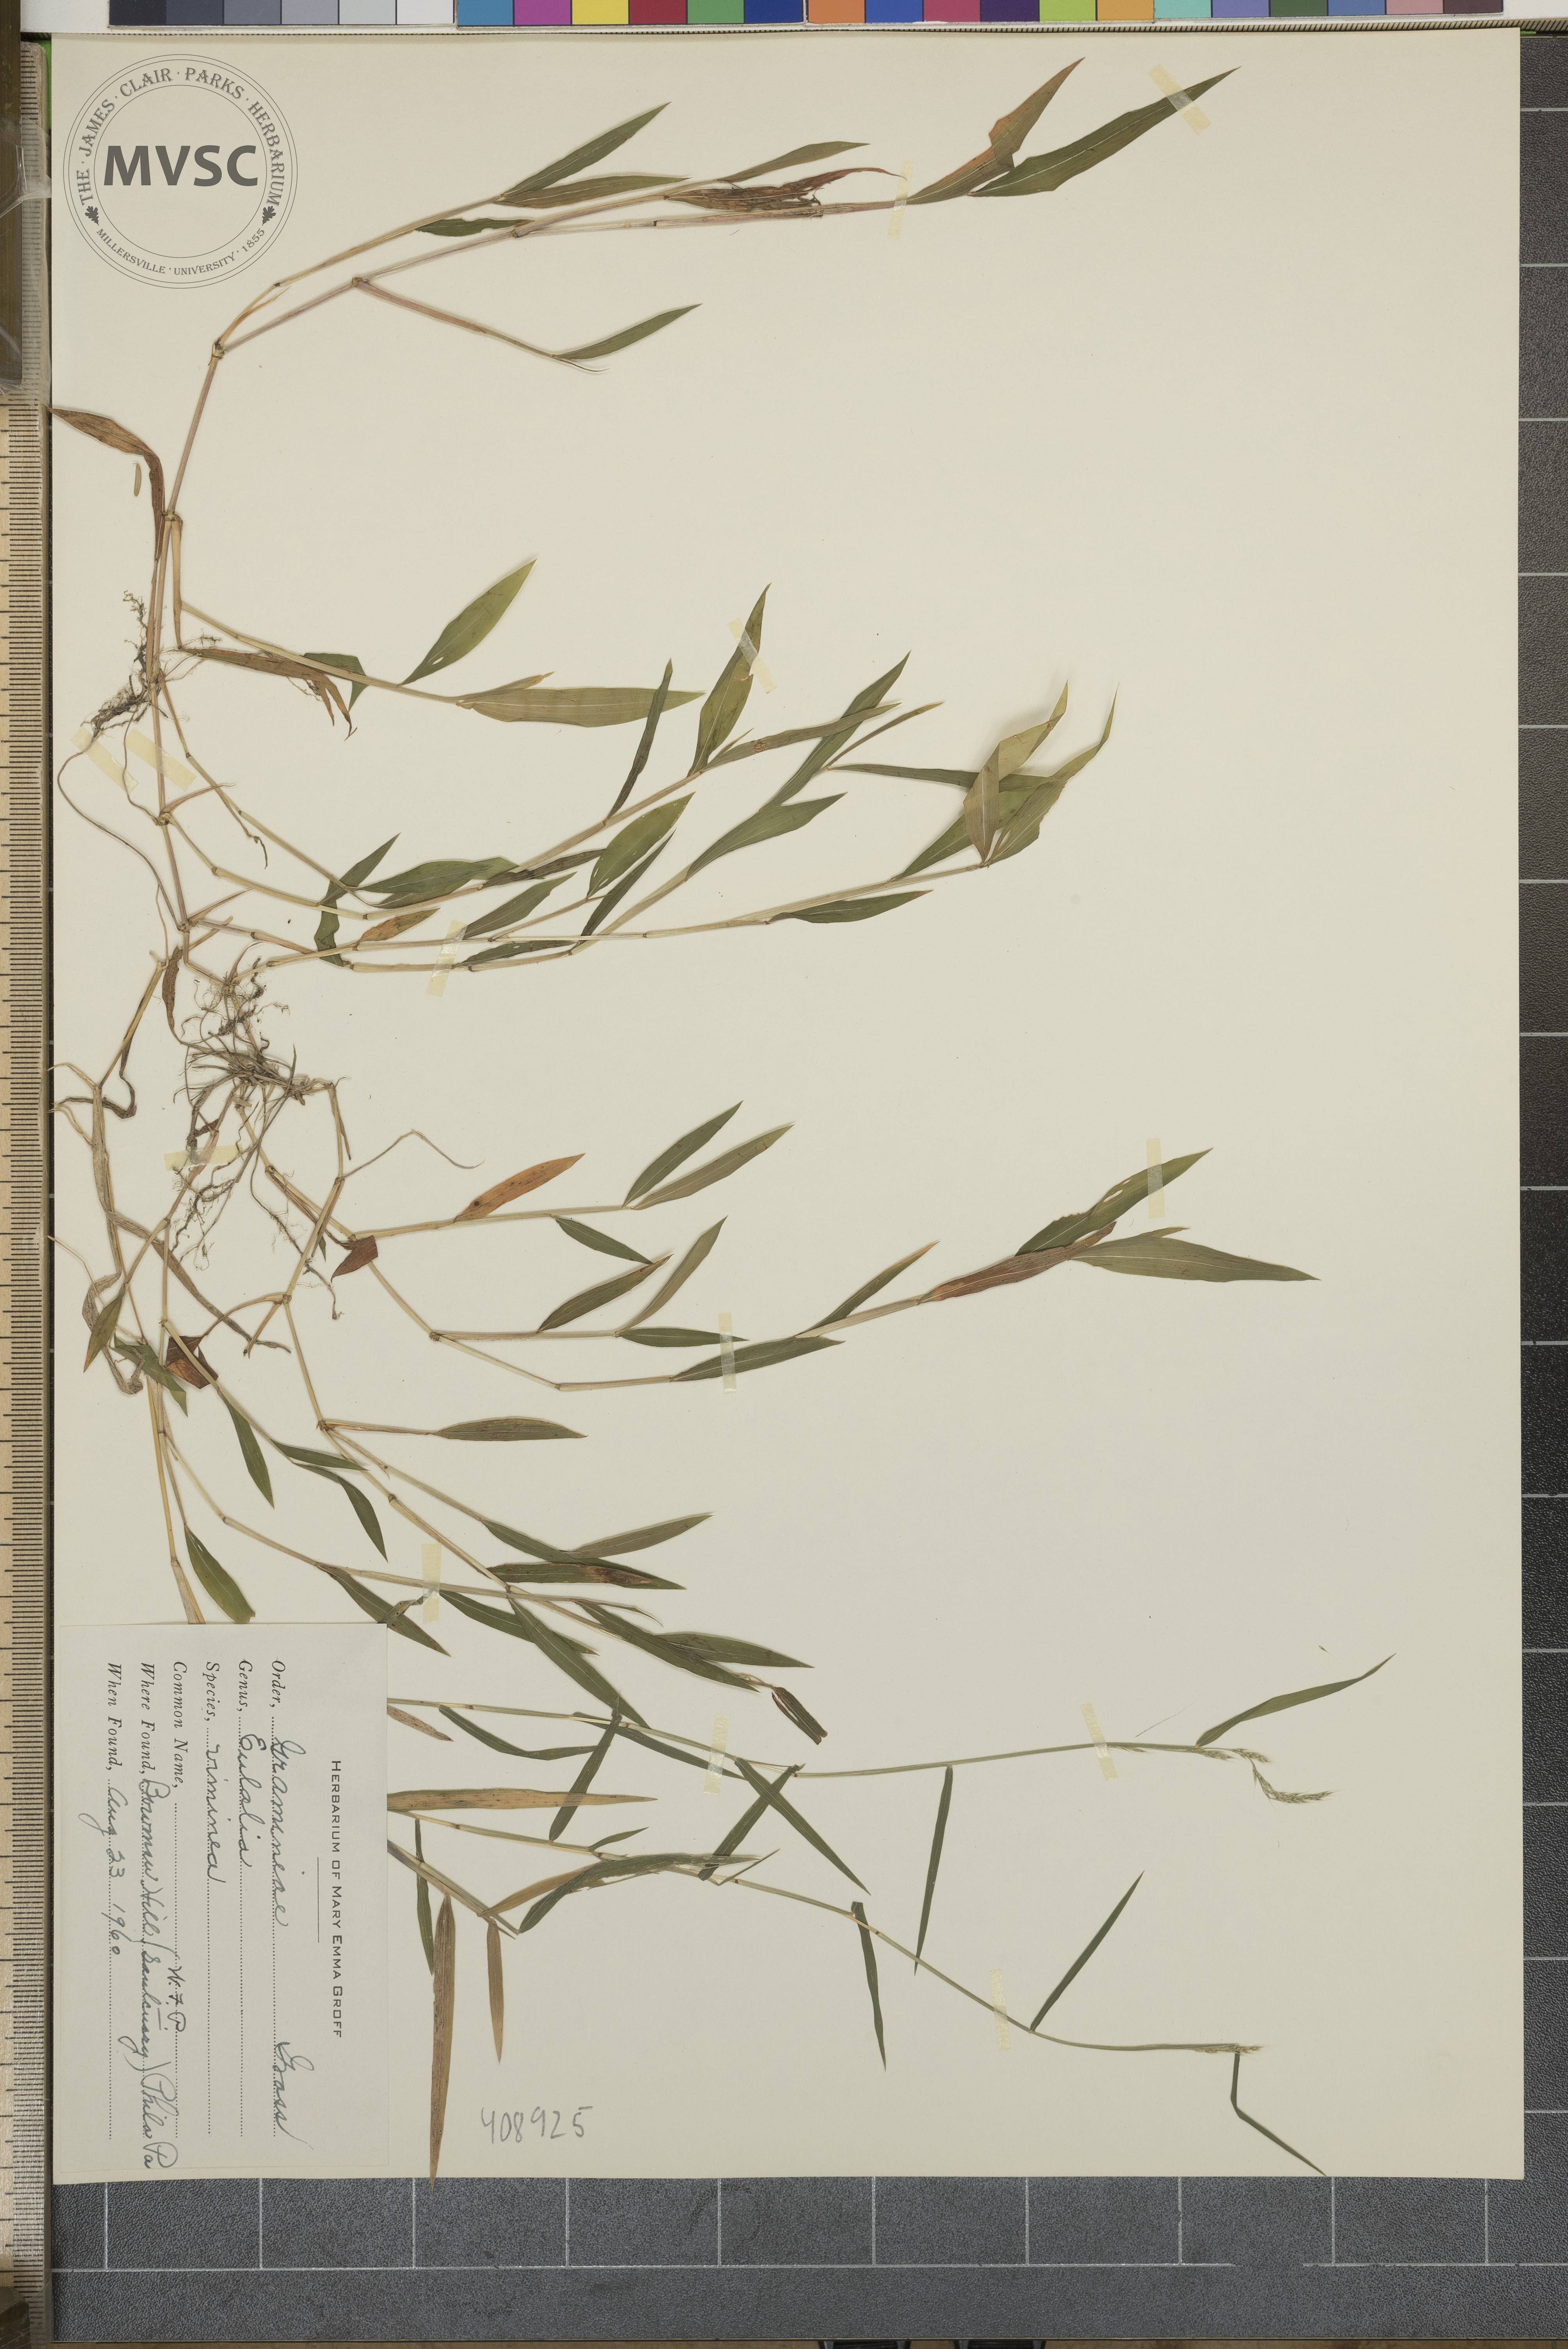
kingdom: Plantae
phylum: Tracheophyta
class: Liliopsida
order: Poales
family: Poaceae
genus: Microstegium
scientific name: Microstegium vimineum
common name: Japanese stiltgrass
